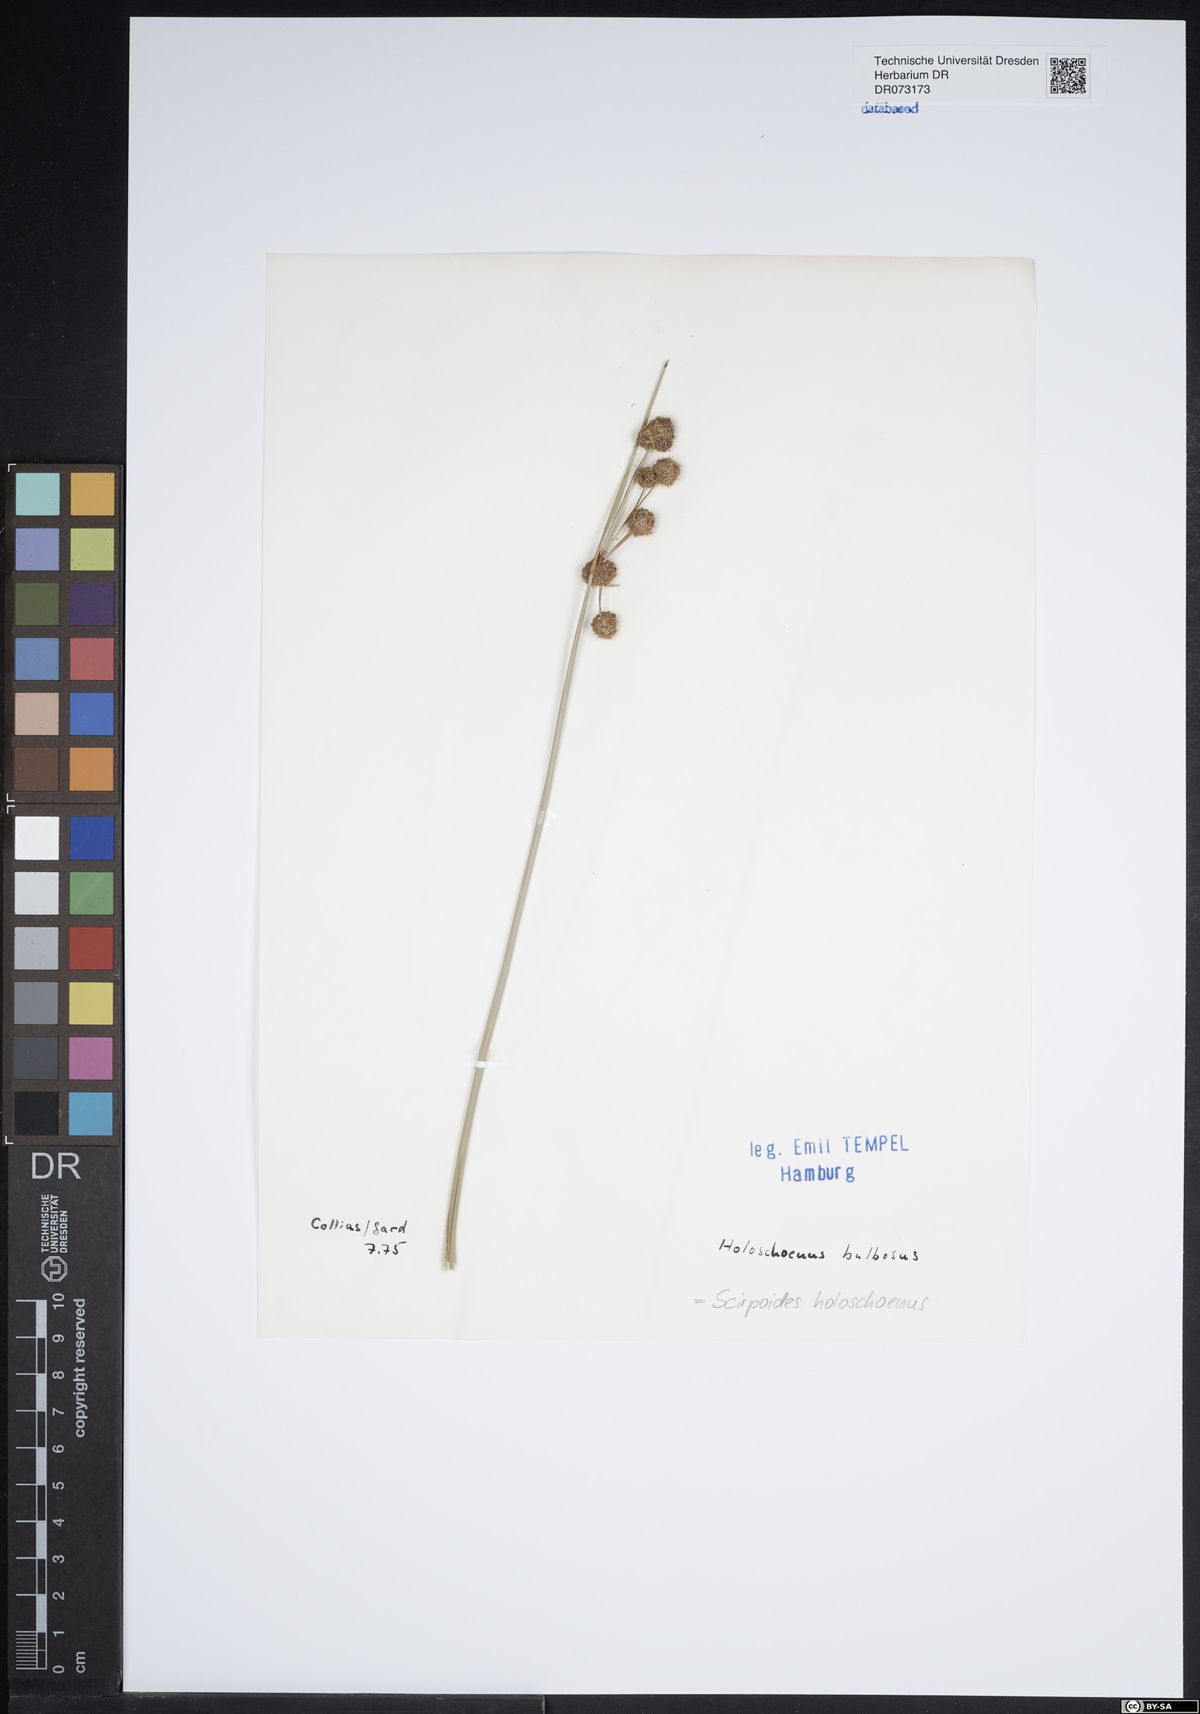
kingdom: Plantae
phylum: Tracheophyta
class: Liliopsida
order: Poales
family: Cyperaceae
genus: Scirpoides
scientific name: Scirpoides holoschoenus
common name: Round-headed club-rush
